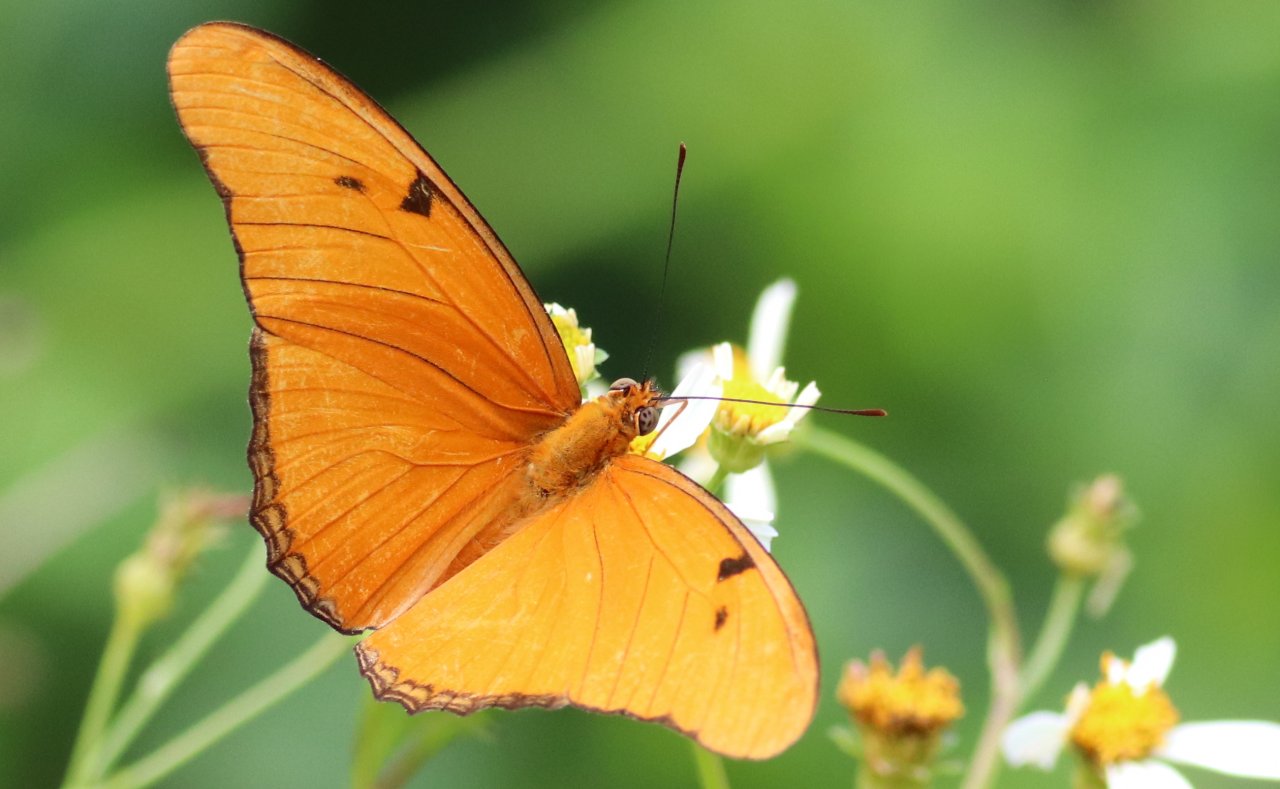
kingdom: Animalia
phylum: Arthropoda
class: Insecta
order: Lepidoptera
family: Nymphalidae
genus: Dryas
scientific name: Dryas iulia
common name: Julia
